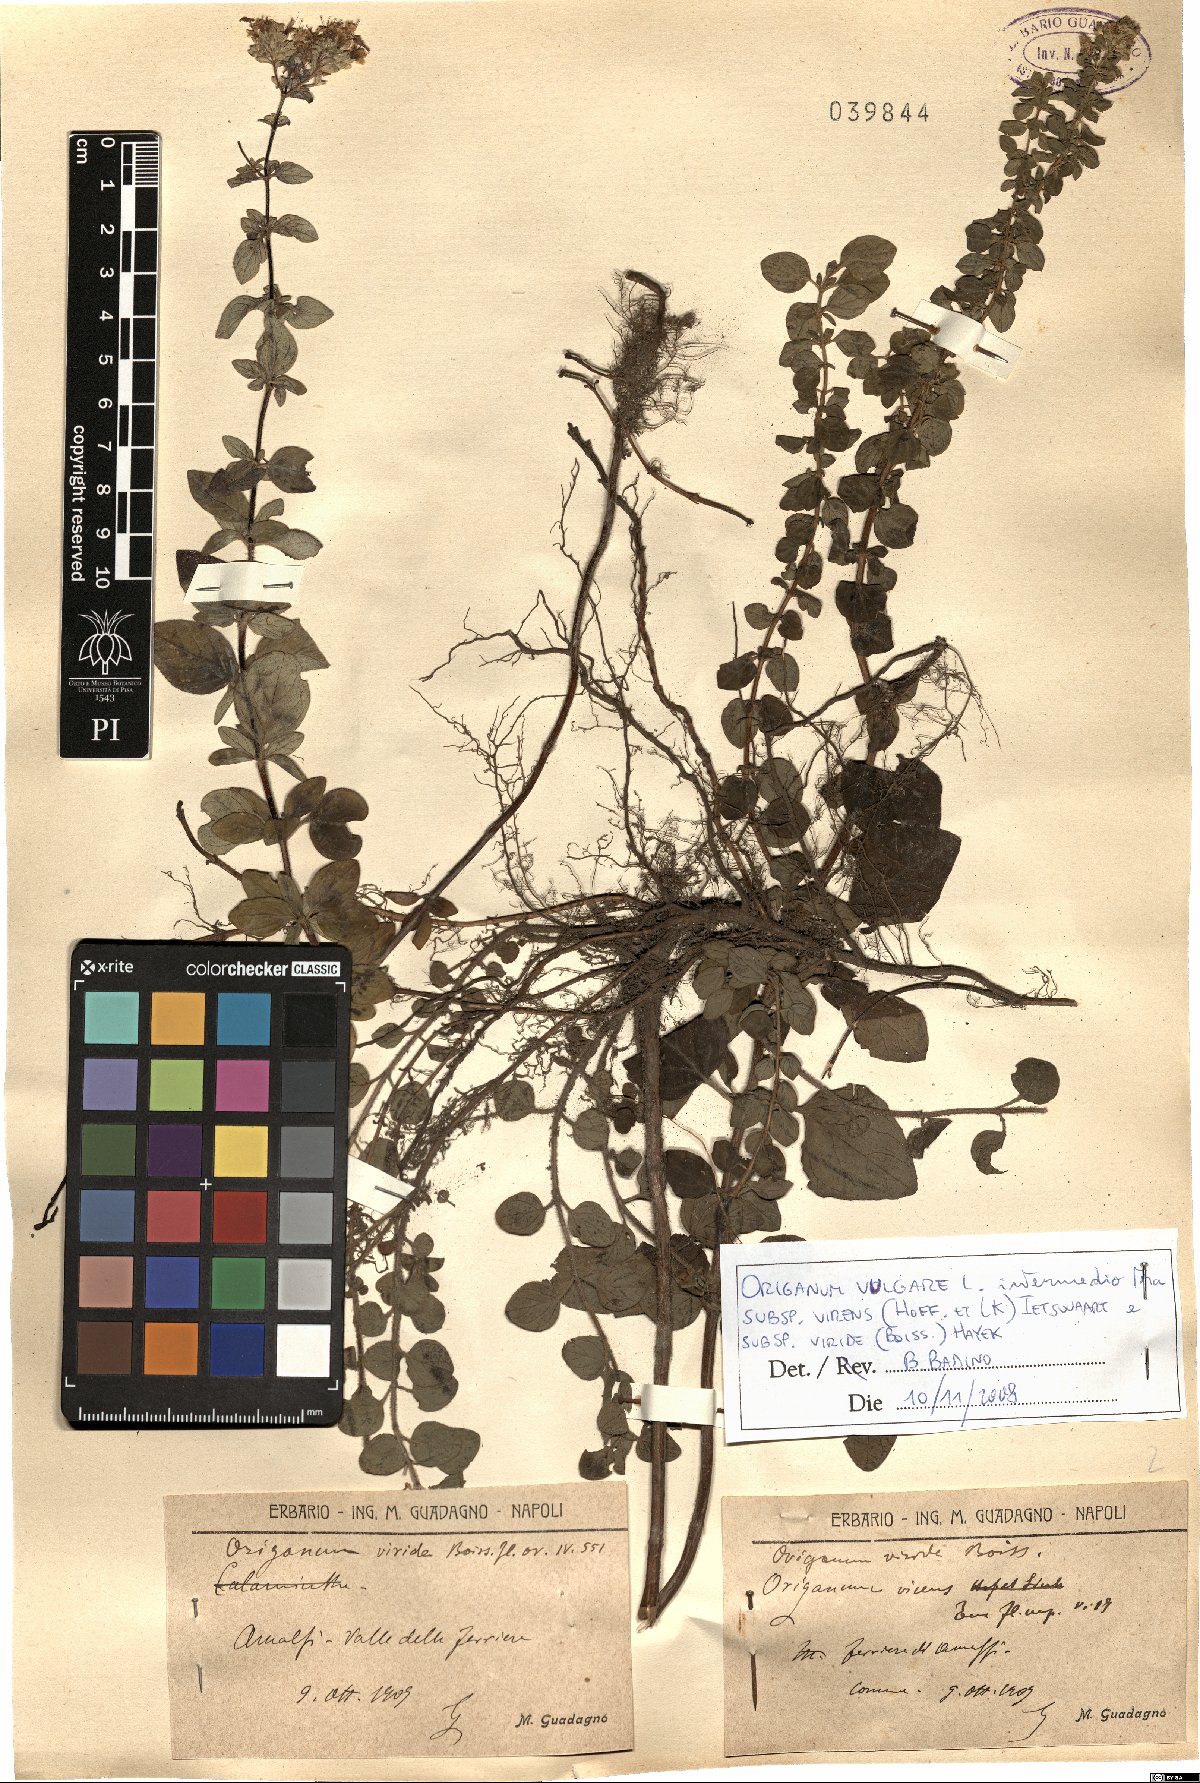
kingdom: Plantae
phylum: Tracheophyta
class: Magnoliopsida
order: Lamiales
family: Lamiaceae
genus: Origanum
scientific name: Origanum vulgare
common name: Wild marjoram
